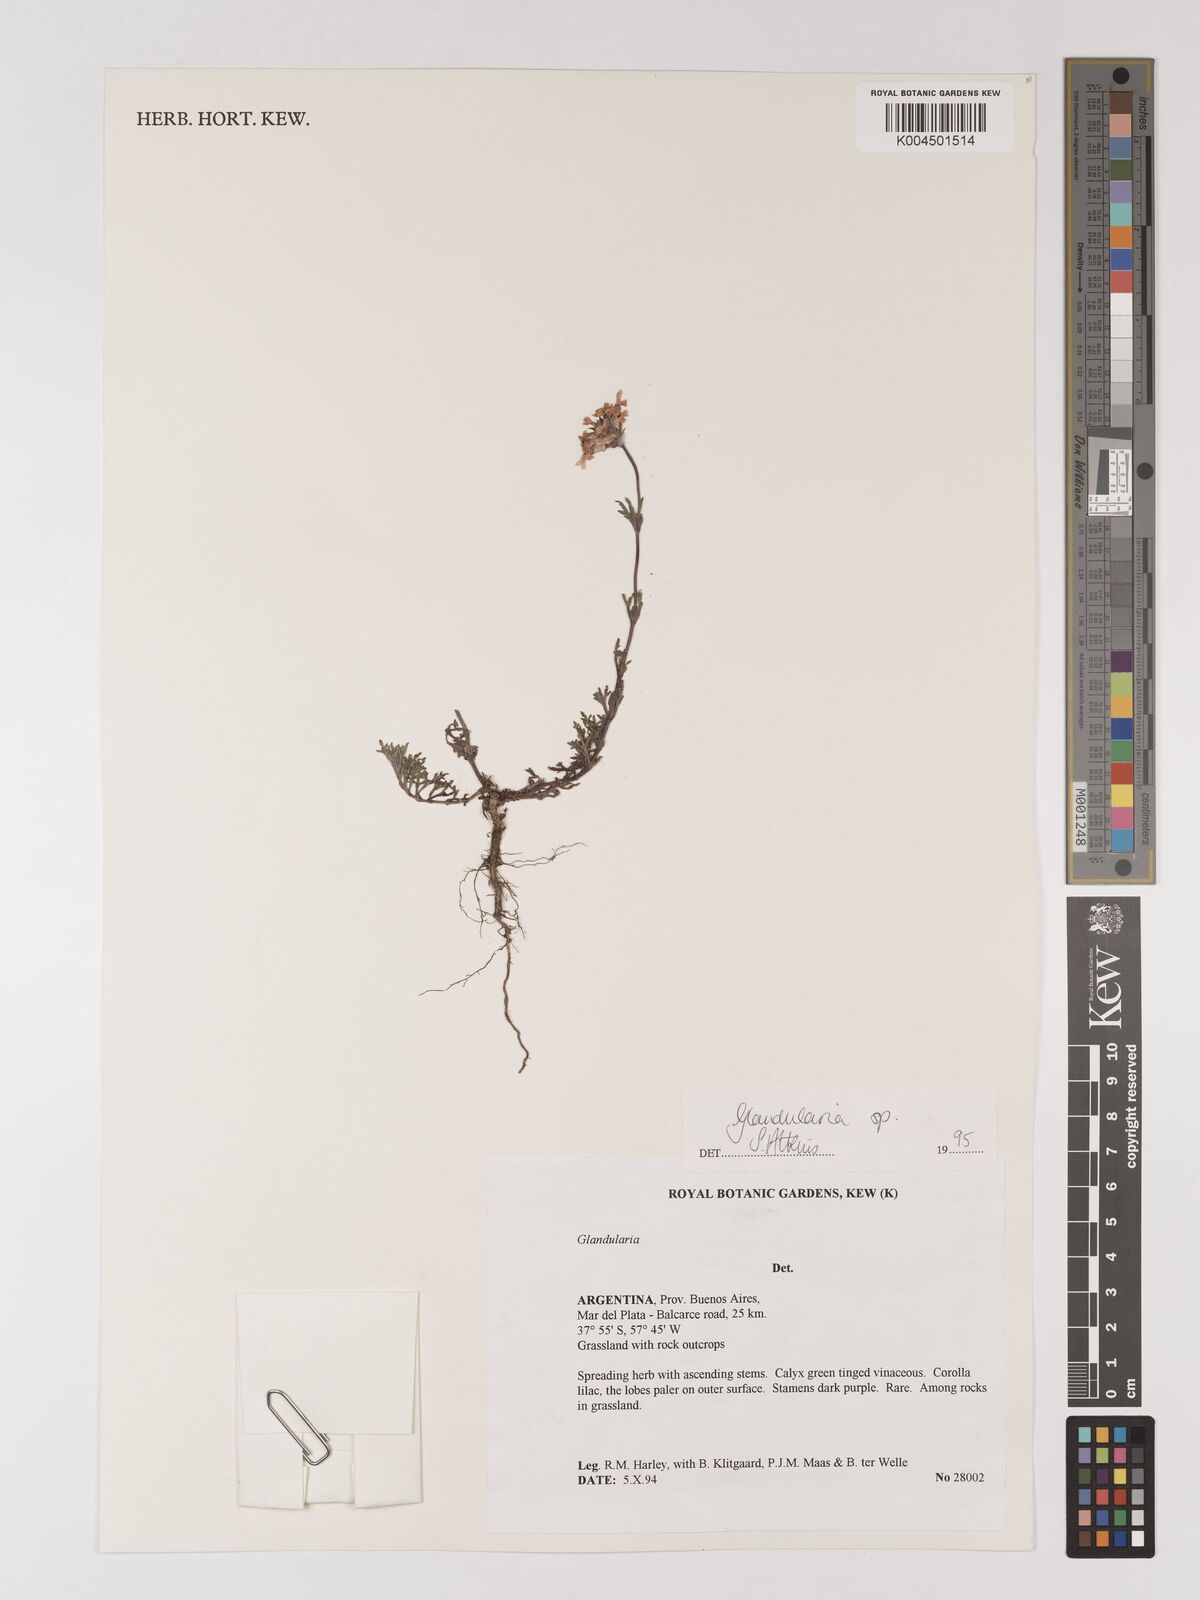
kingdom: Plantae
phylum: Tracheophyta
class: Magnoliopsida
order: Lamiales
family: Verbenaceae
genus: Verbena
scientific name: Verbena
